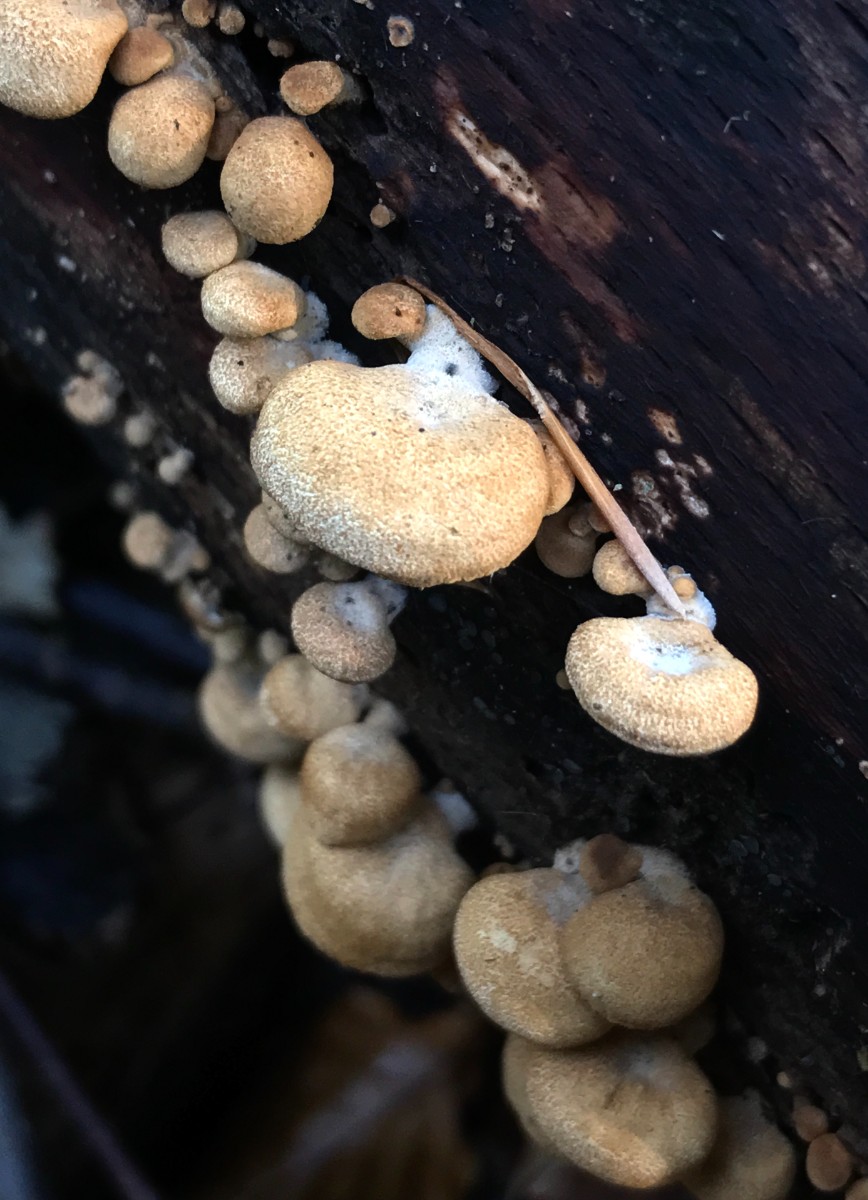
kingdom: Fungi
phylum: Basidiomycota
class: Agaricomycetes
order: Agaricales
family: Mycenaceae
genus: Panellus
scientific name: Panellus stipticus
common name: kliddet epaulethat
